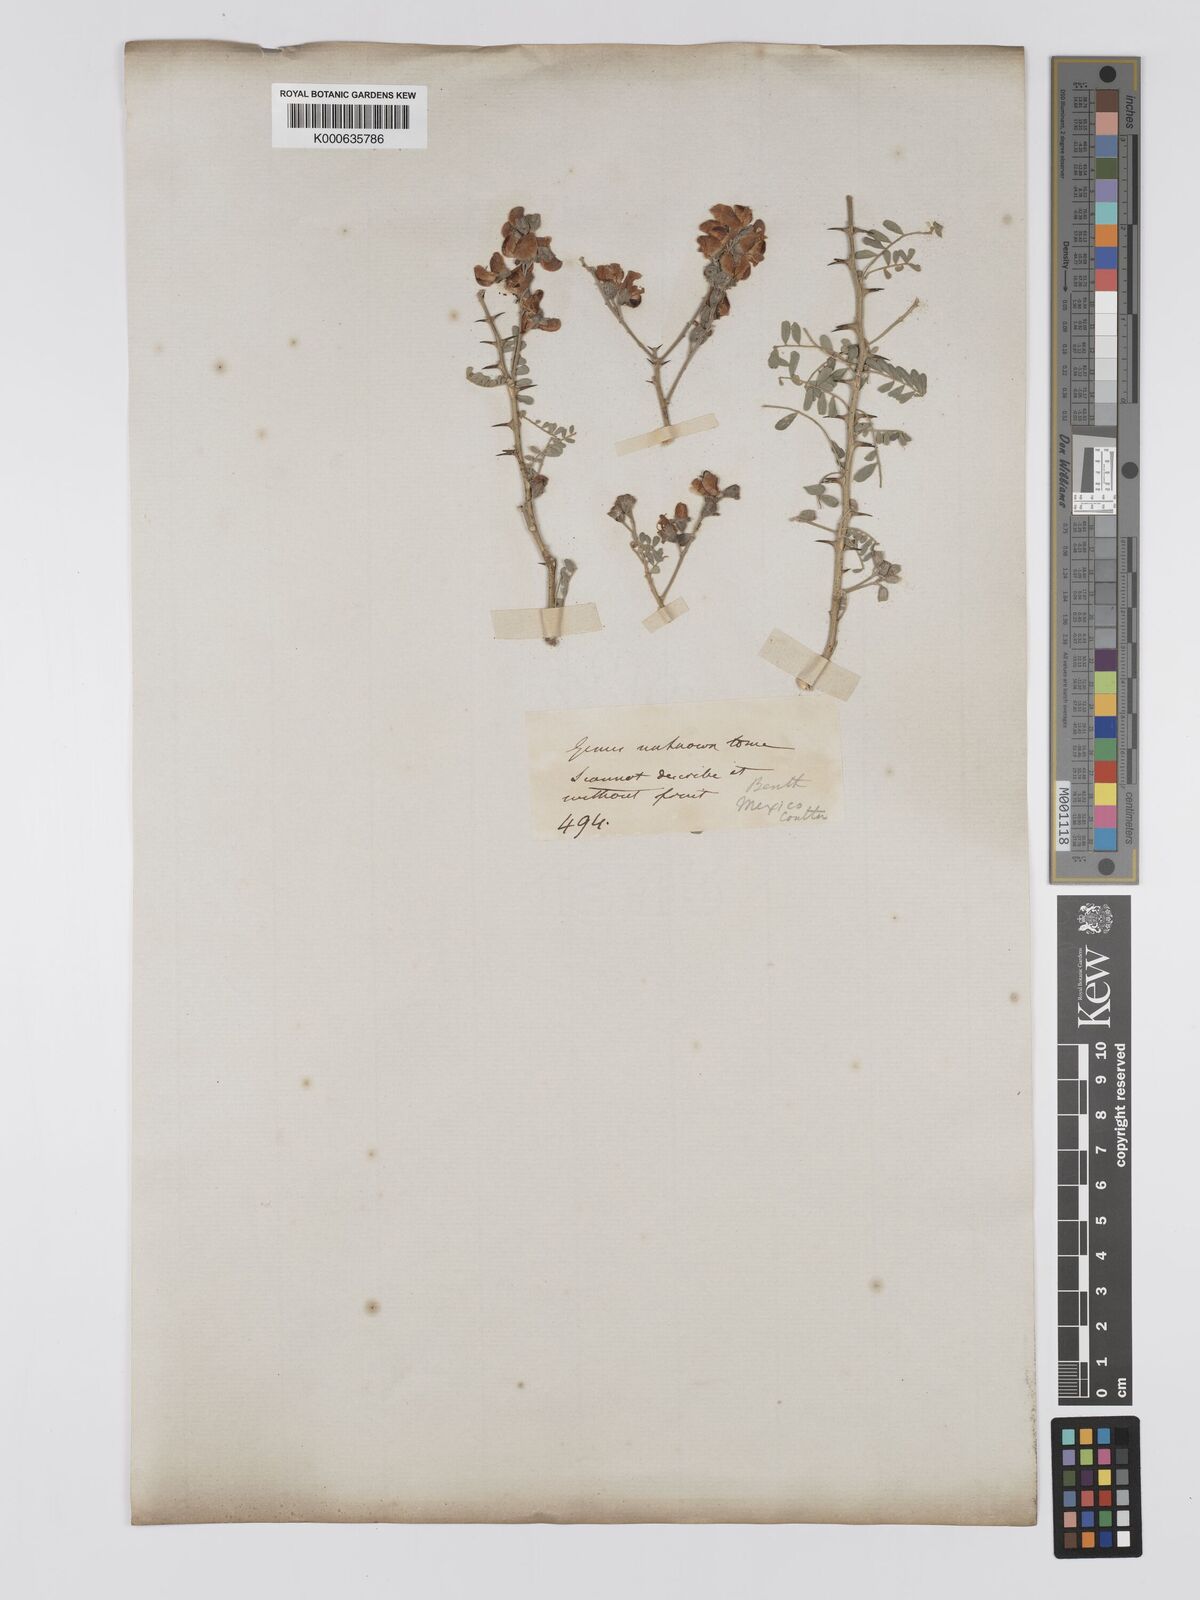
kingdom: Plantae
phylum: Tracheophyta
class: Magnoliopsida
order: Fabales
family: Fabaceae
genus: Olneya
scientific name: Olneya tesota
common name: Desert ironwood
